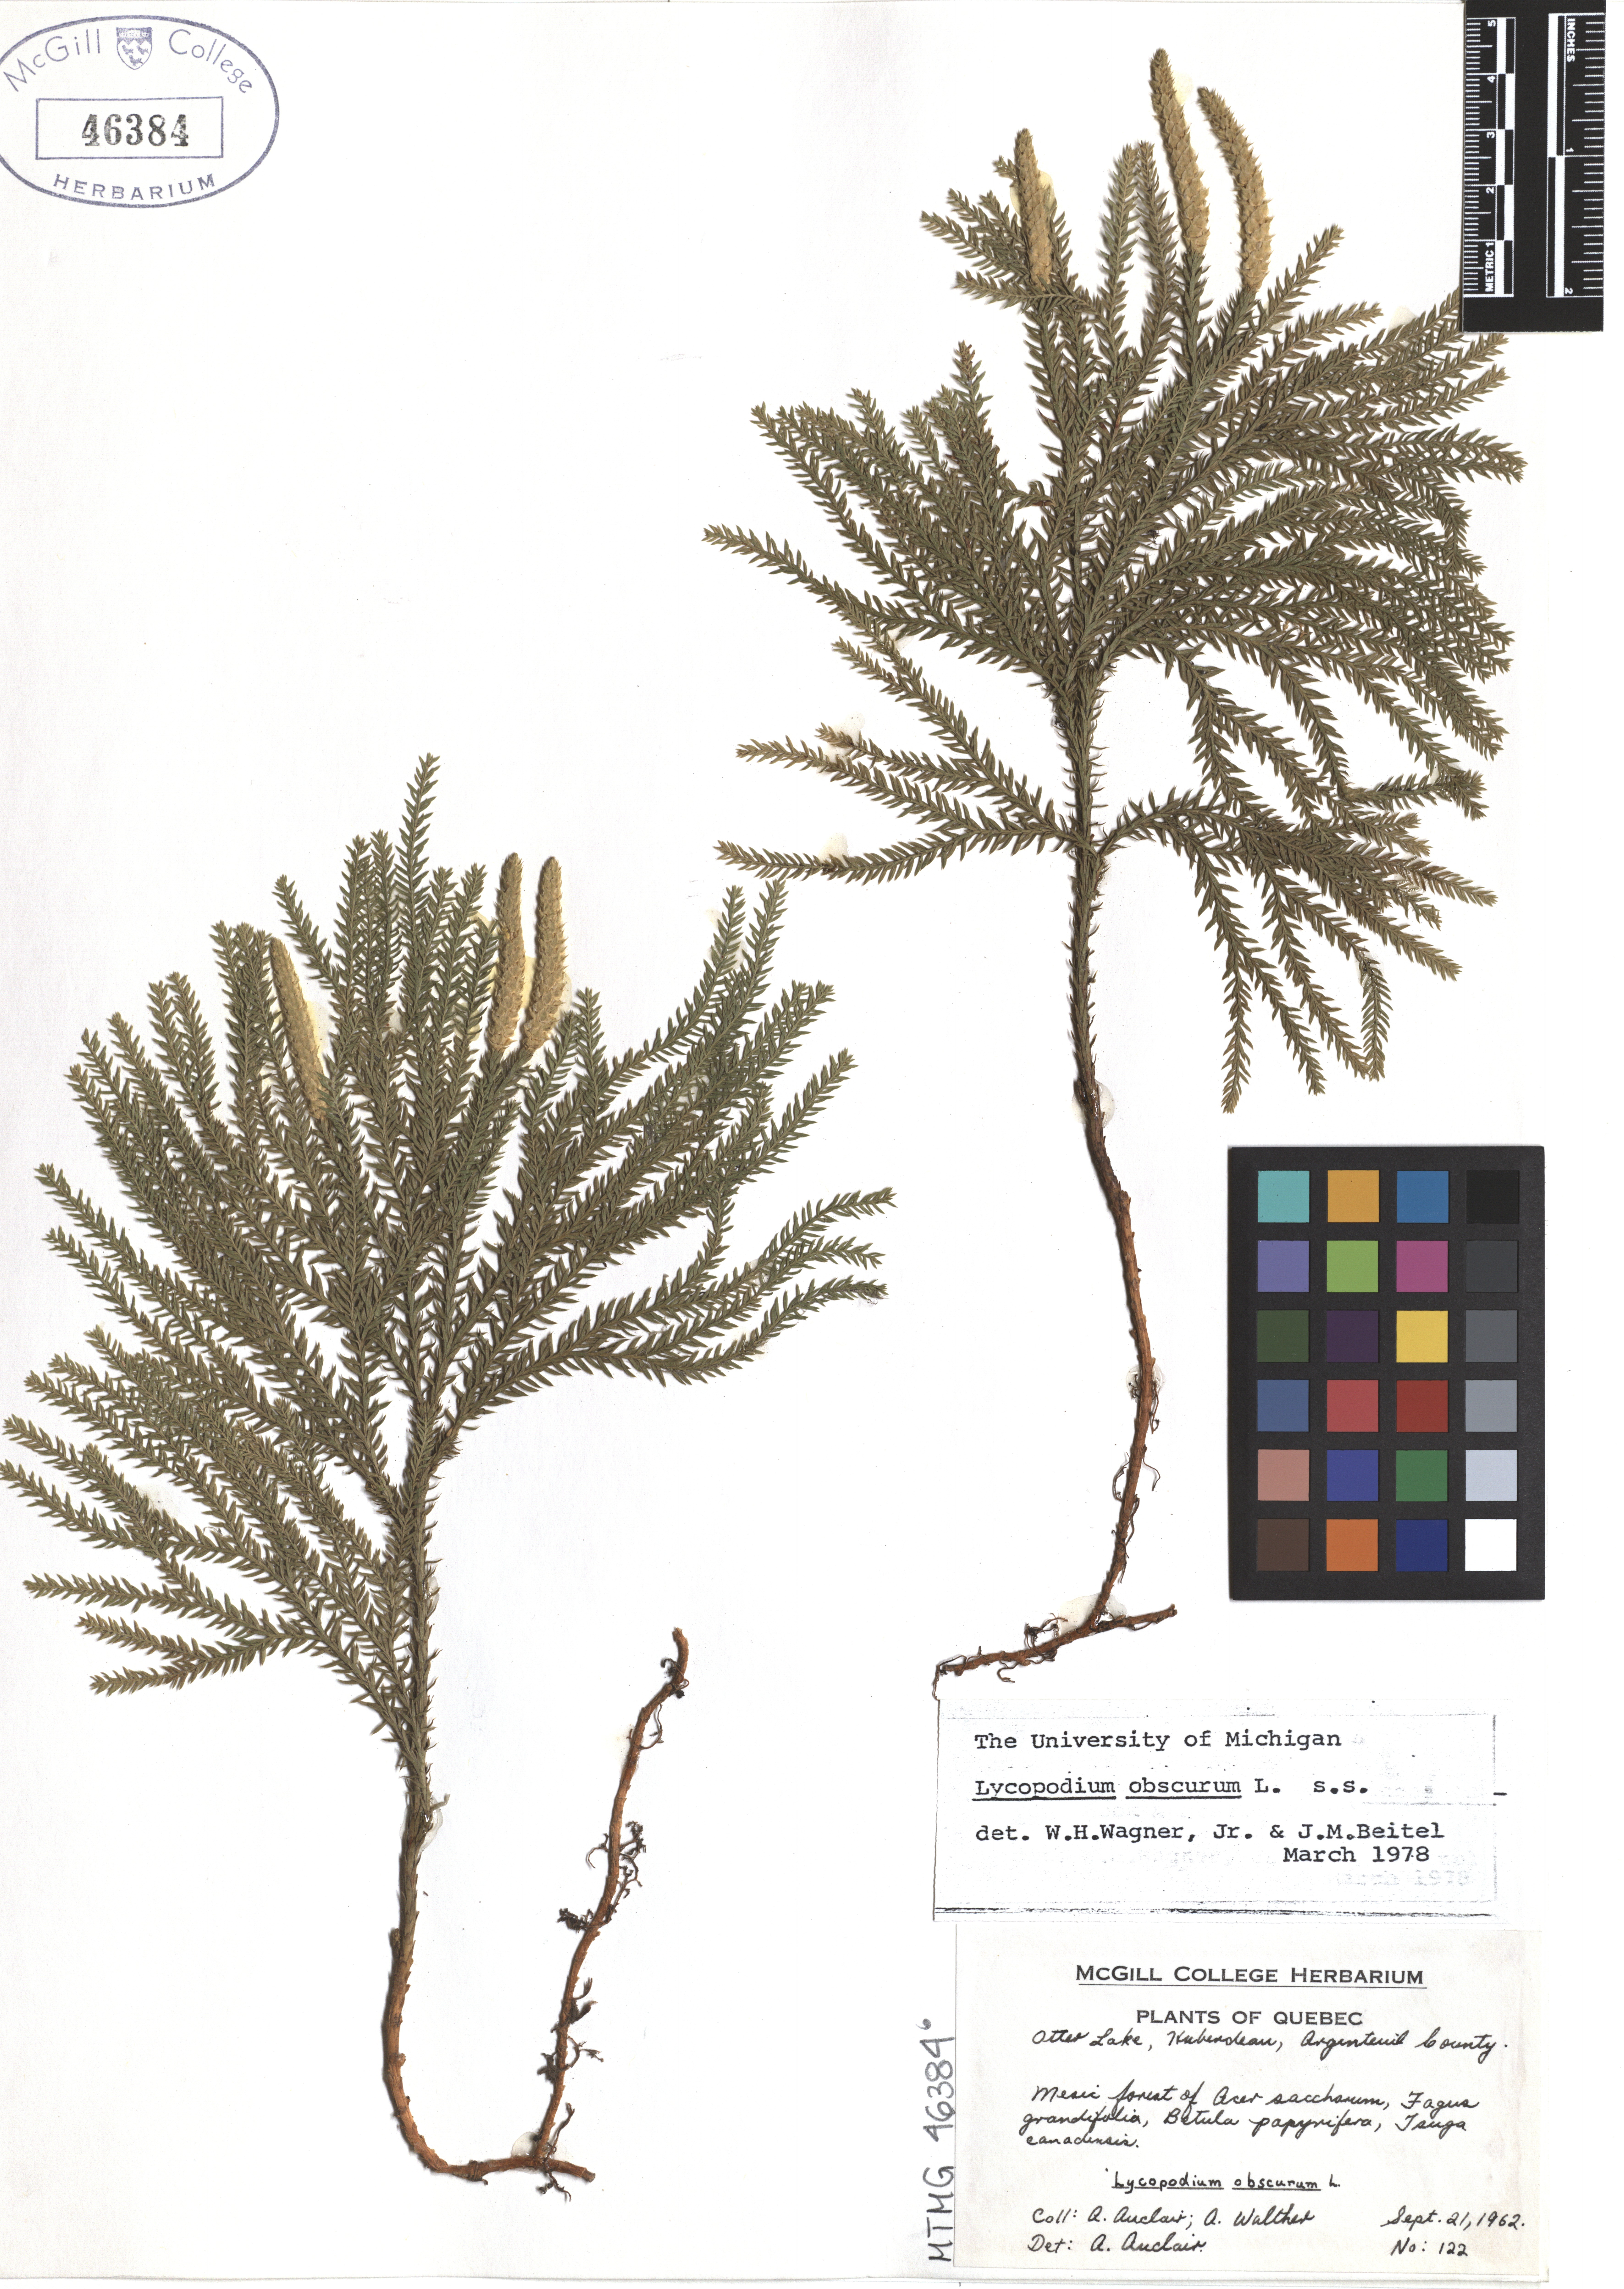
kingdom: Plantae
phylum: Tracheophyta
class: Lycopodiopsida
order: Lycopodiales
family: Lycopodiaceae
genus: Dendrolycopodium
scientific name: Dendrolycopodium obscurum
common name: Common ground-pine
